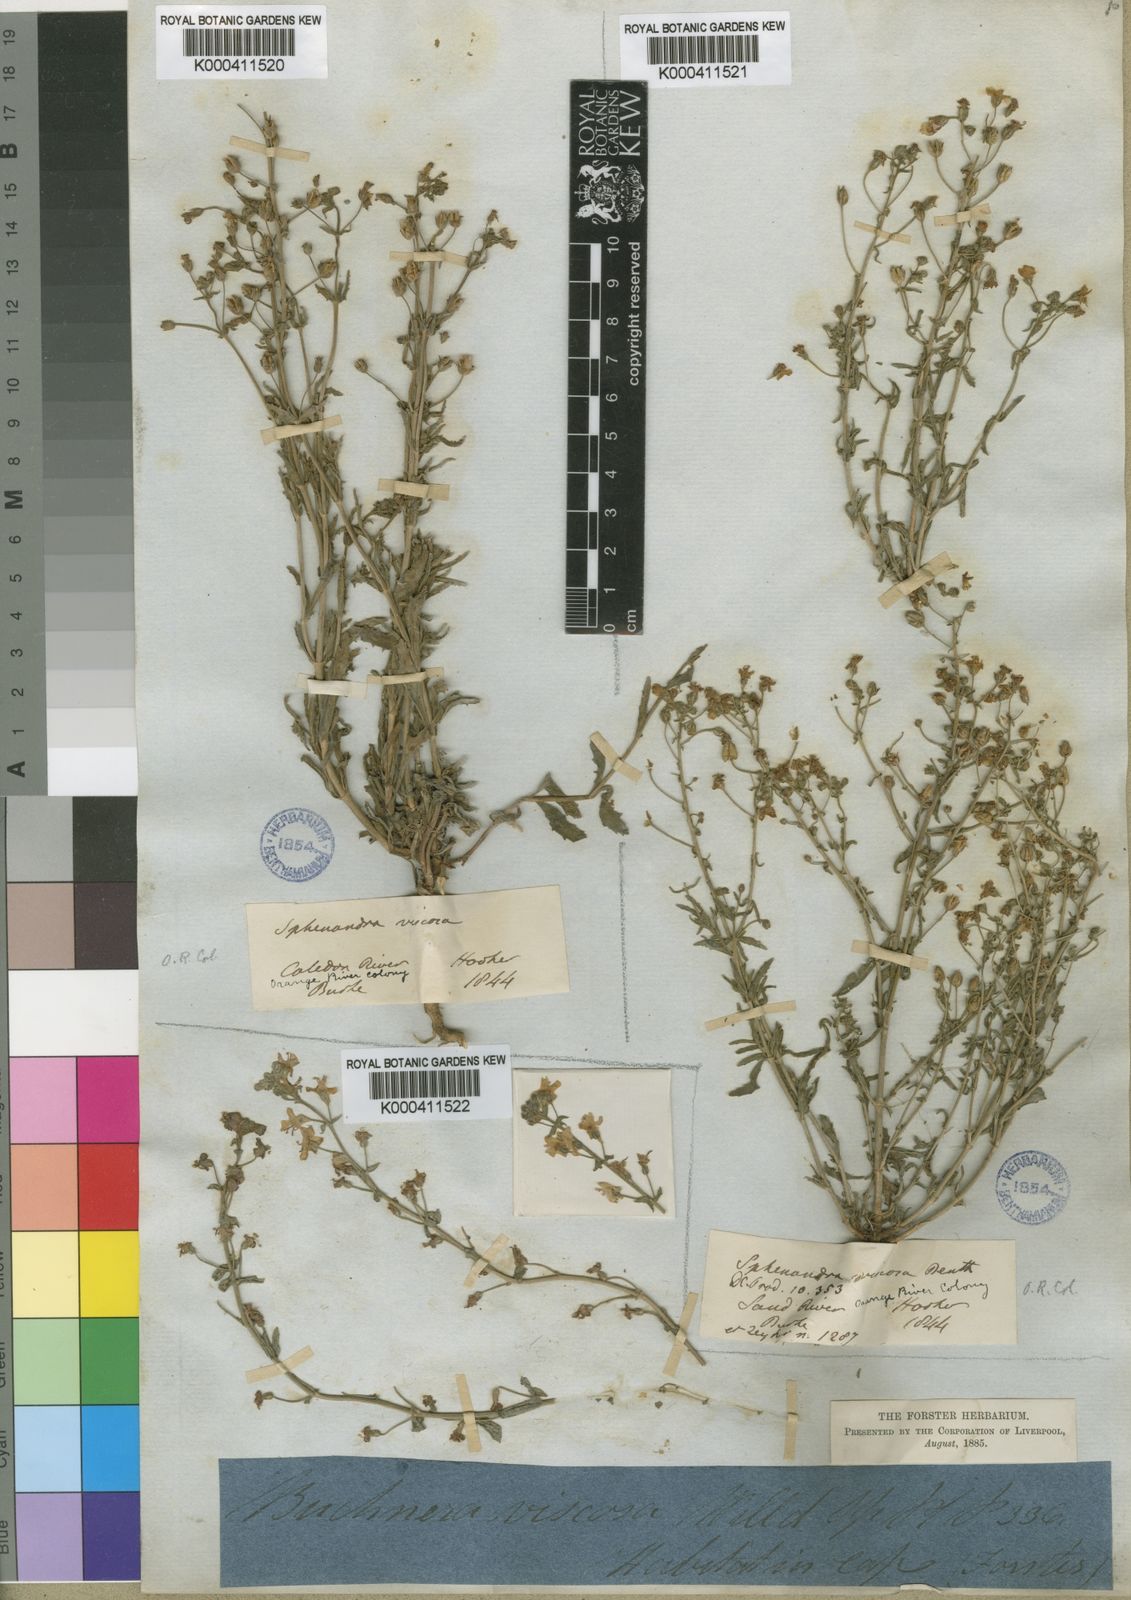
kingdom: Plantae
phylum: Tracheophyta
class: Magnoliopsida
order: Lamiales
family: Scrophulariaceae
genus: Chaenostoma
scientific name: Chaenostoma caeruleum
